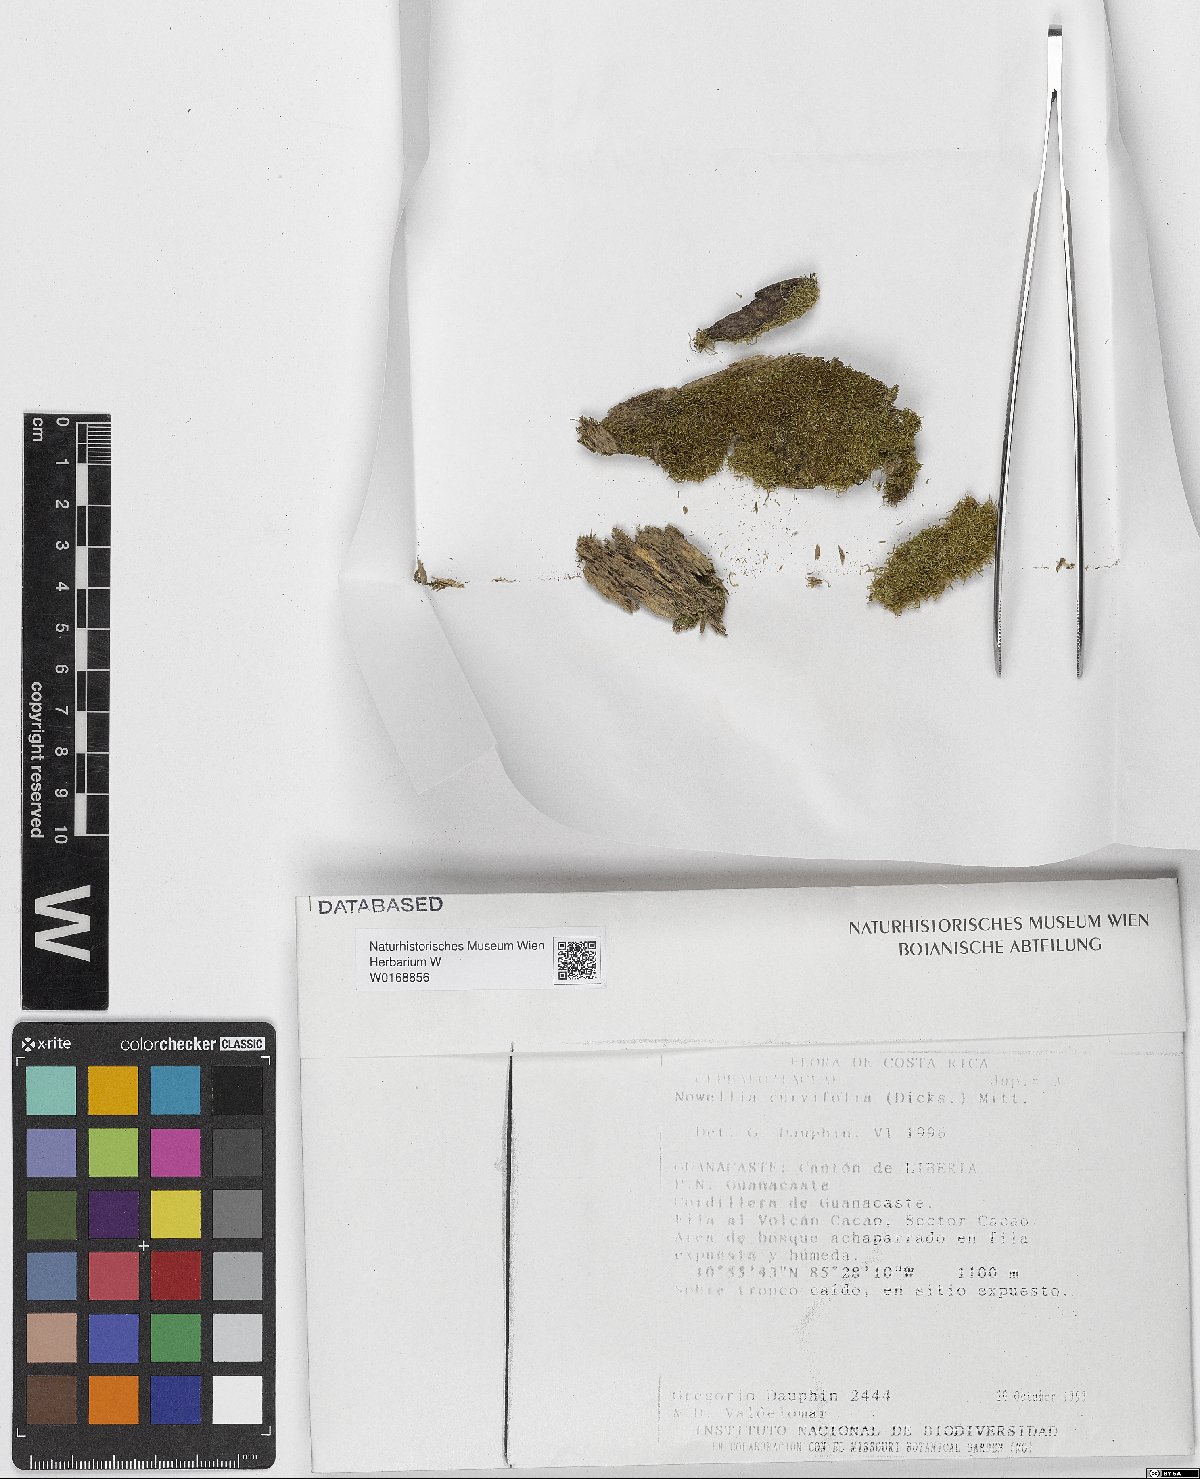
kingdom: Plantae
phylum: Marchantiophyta
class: Jungermanniopsida
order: Jungermanniales
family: Cephaloziaceae
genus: Nowellia
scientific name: Nowellia curvifolia
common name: Wood rustwort
